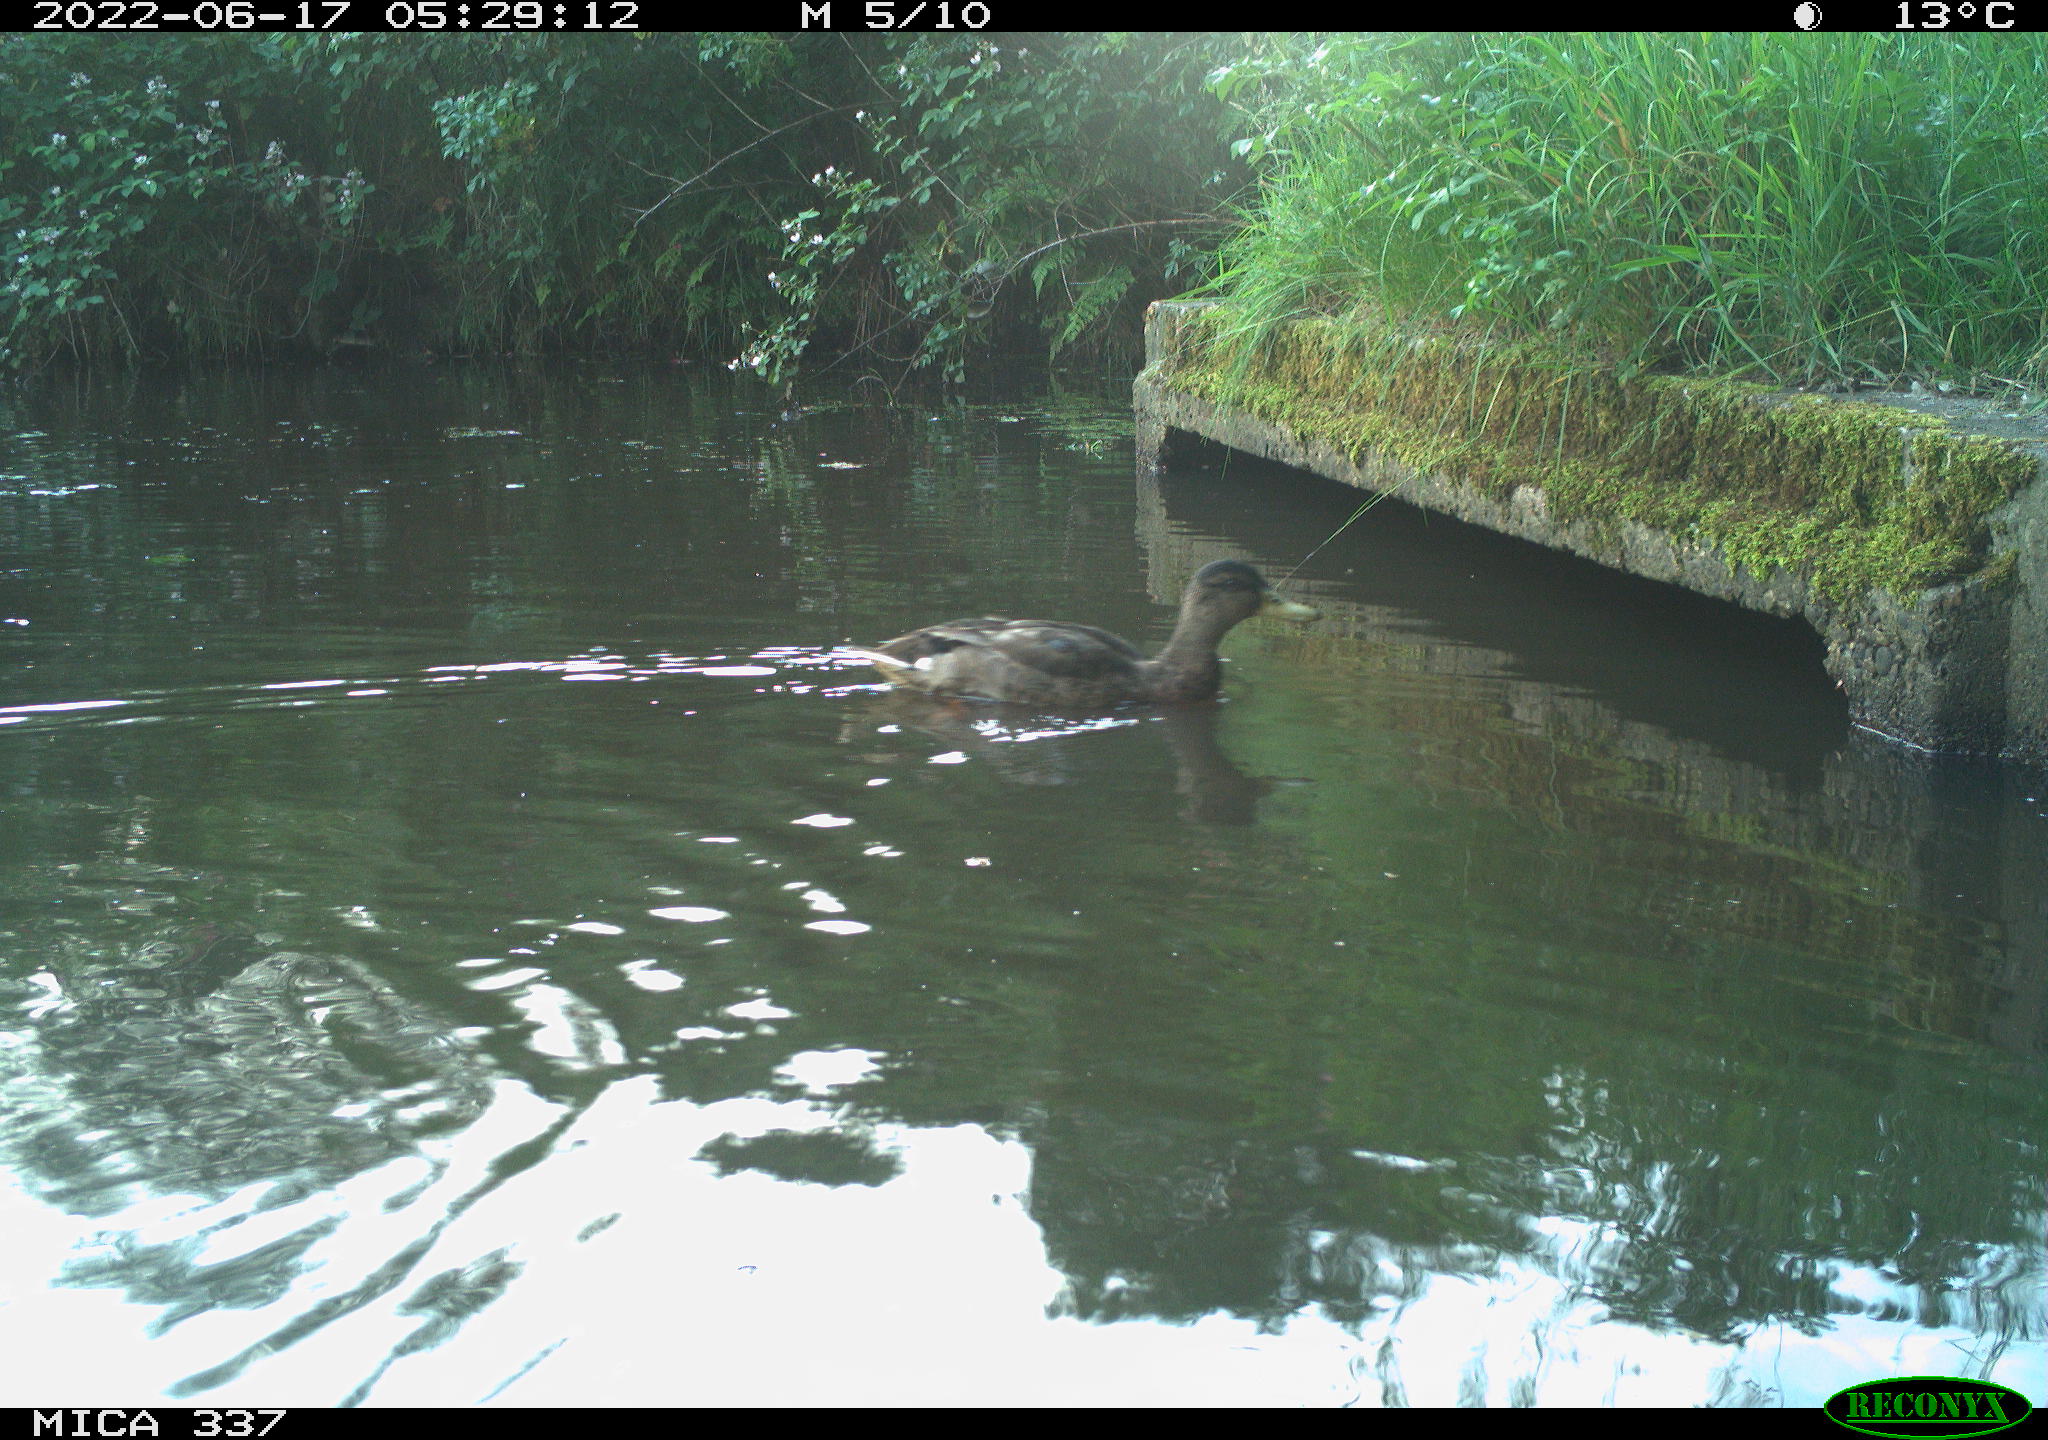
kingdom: Animalia
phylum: Chordata
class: Aves
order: Anseriformes
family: Anatidae
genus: Anas
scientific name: Anas platyrhynchos
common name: Mallard
